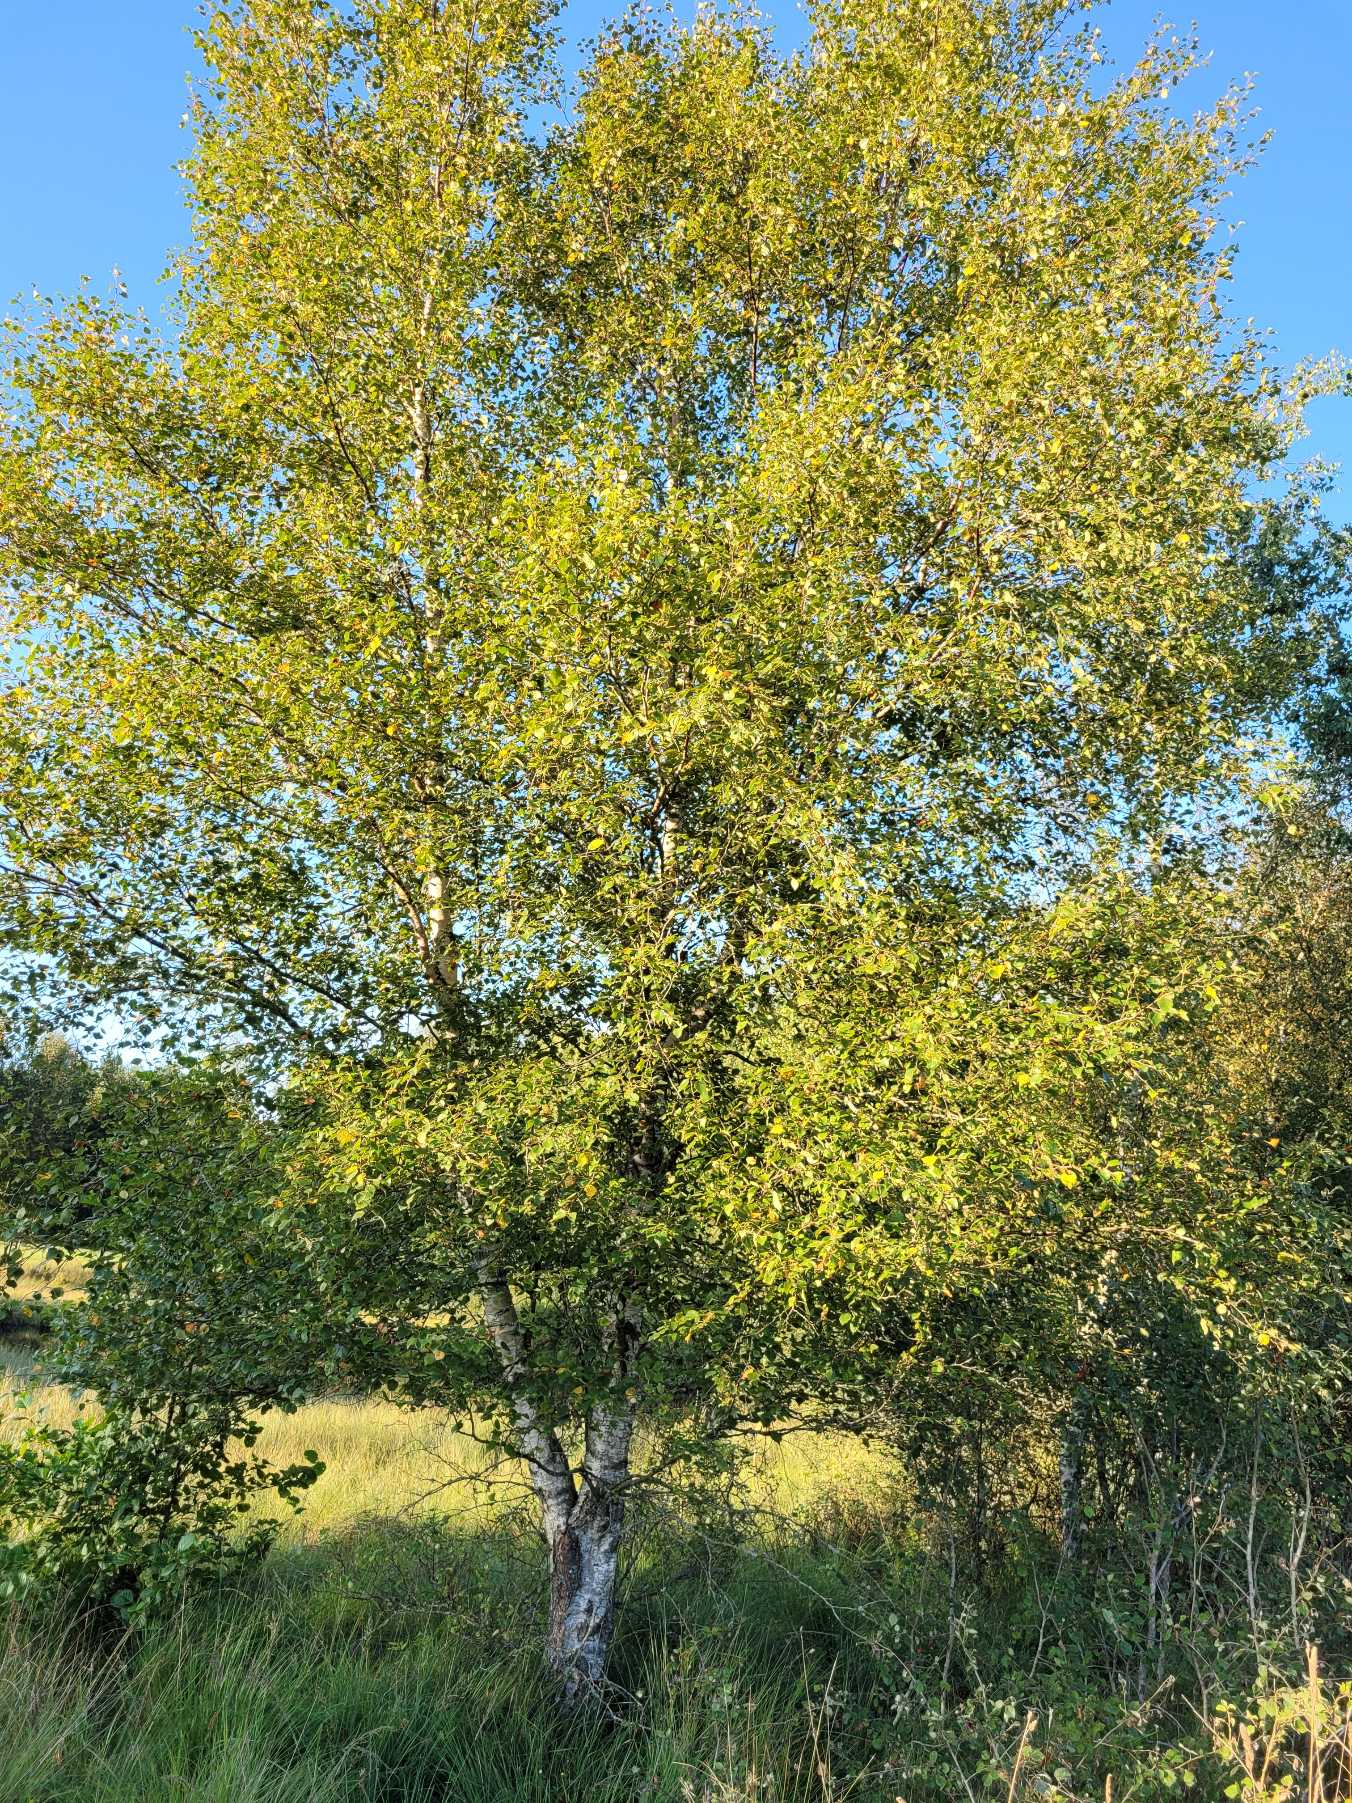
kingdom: Plantae
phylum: Tracheophyta
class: Magnoliopsida
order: Fagales
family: Betulaceae
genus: Betula
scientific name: Betula pubescens
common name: Dun-birk
